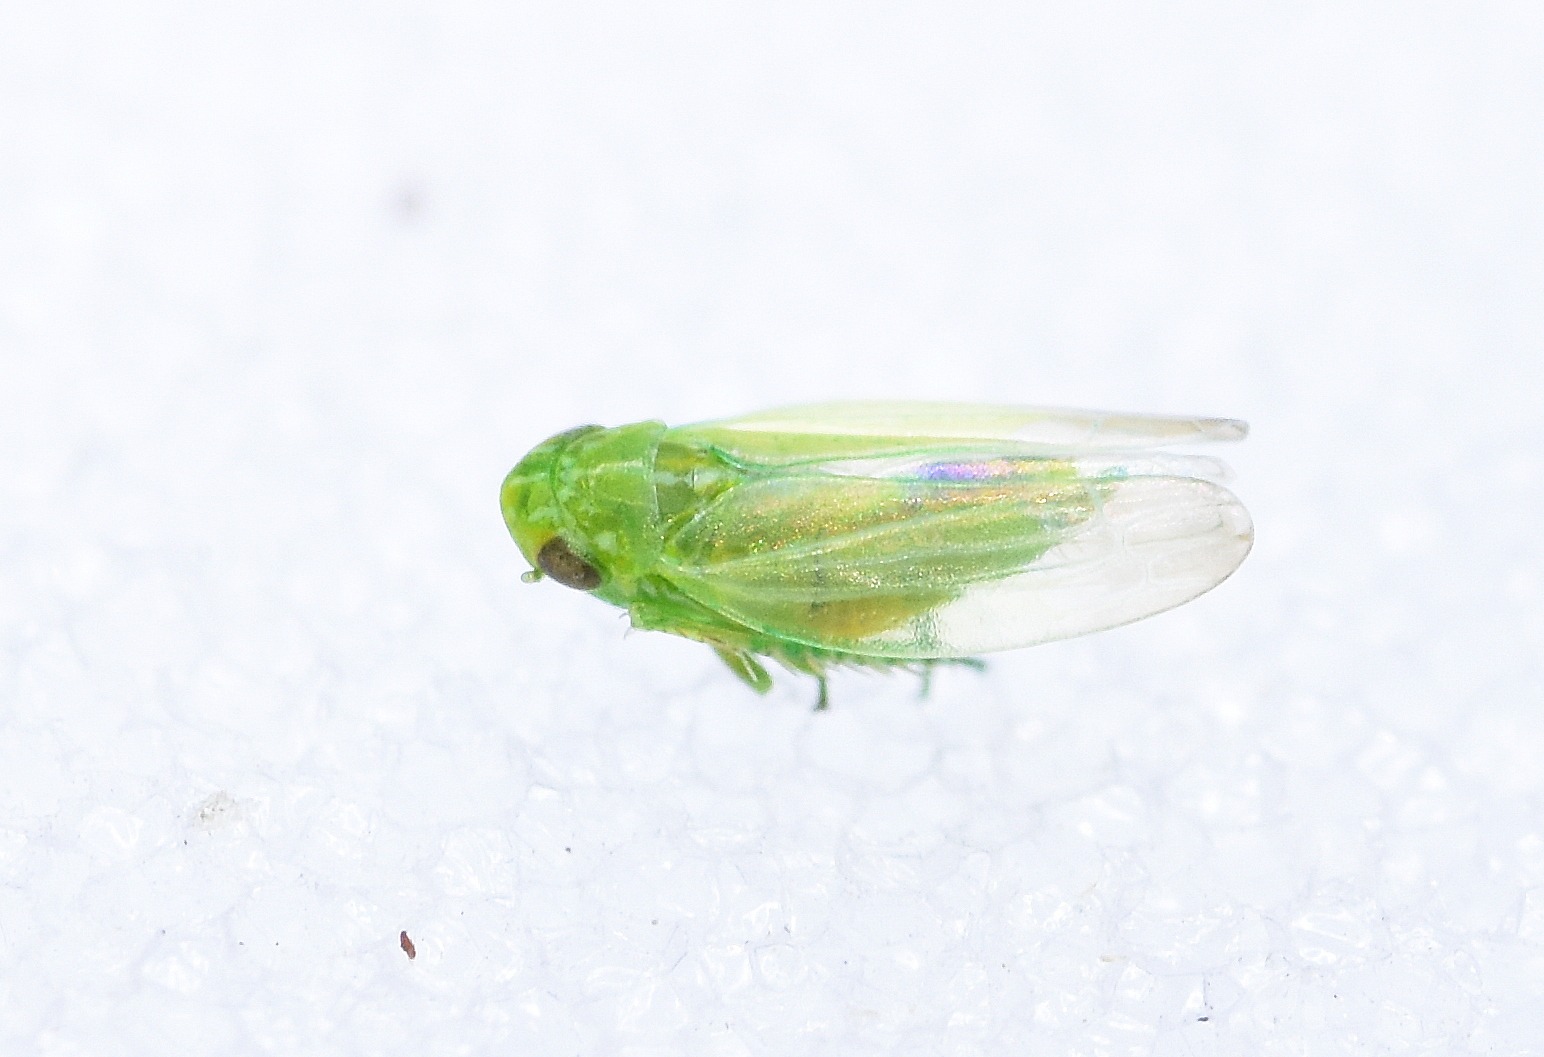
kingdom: Animalia
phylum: Arthropoda
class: Insecta
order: Hemiptera
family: Cicadellidae
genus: Chlorita
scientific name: Chlorita viridula
